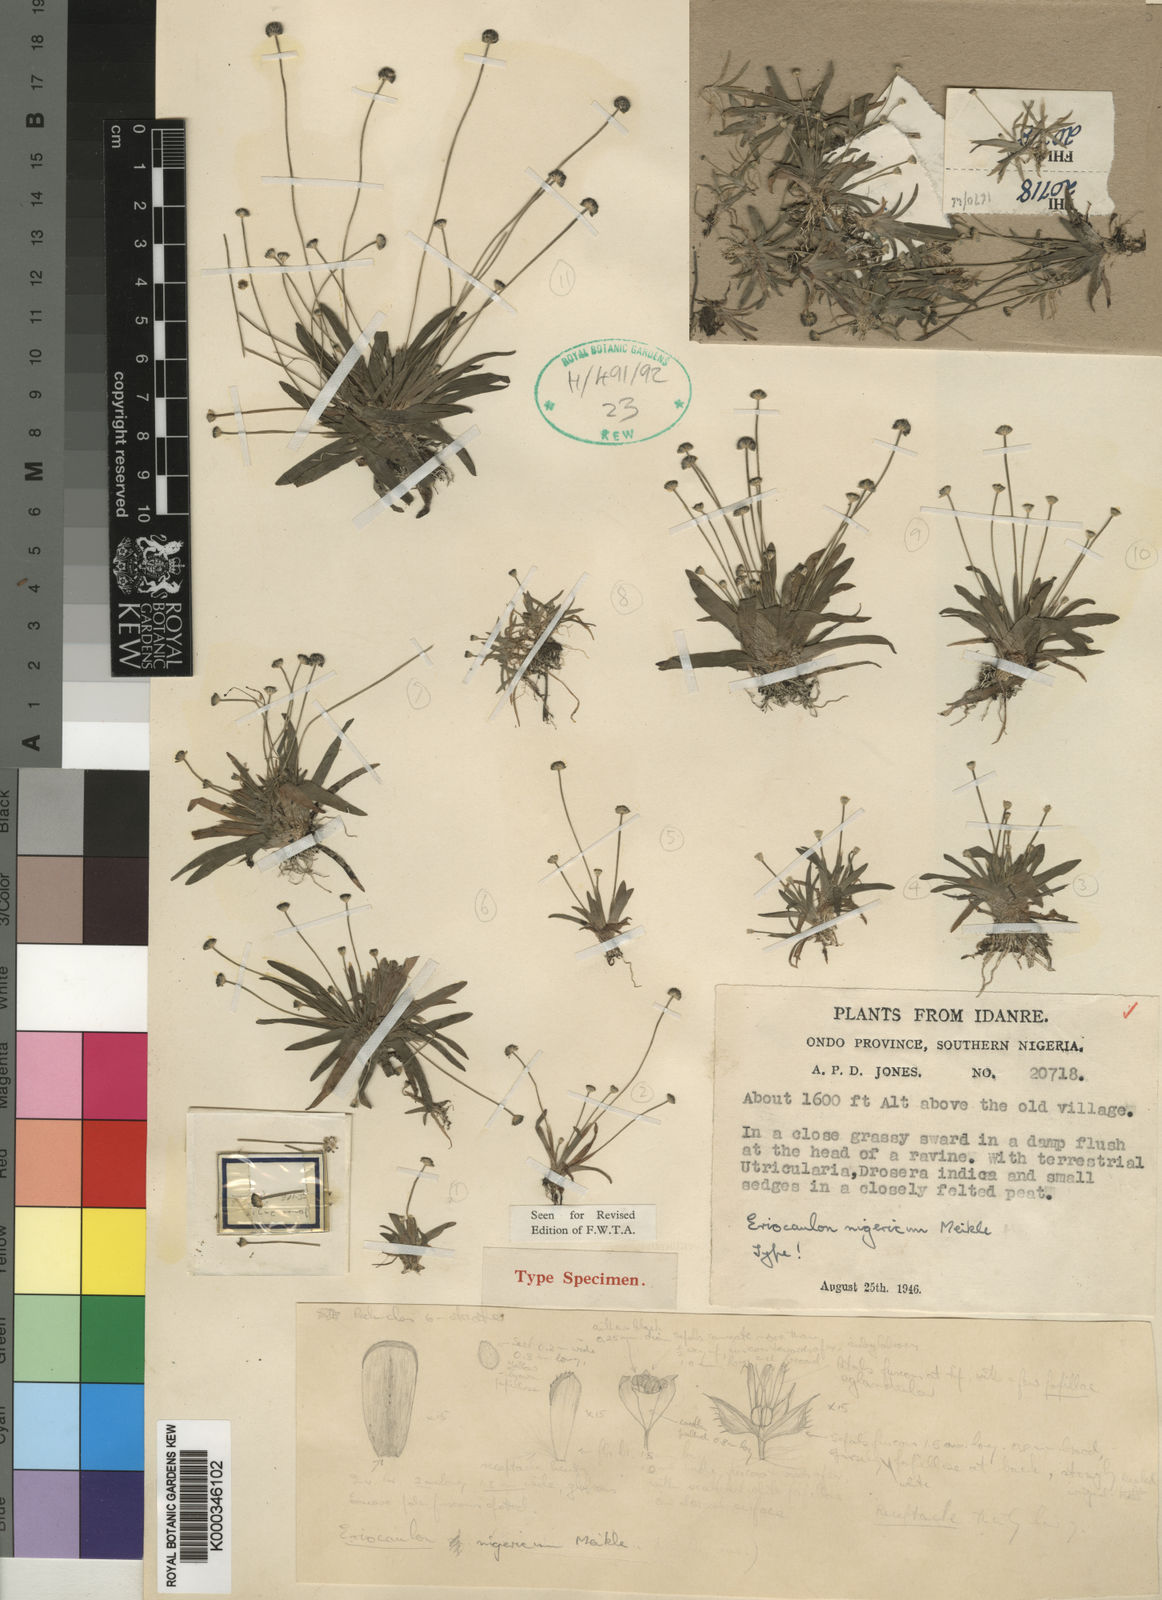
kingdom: Plantae
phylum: Tracheophyta
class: Liliopsida
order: Poales
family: Eriocaulaceae
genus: Eriocaulon
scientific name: Eriocaulon nigericum
